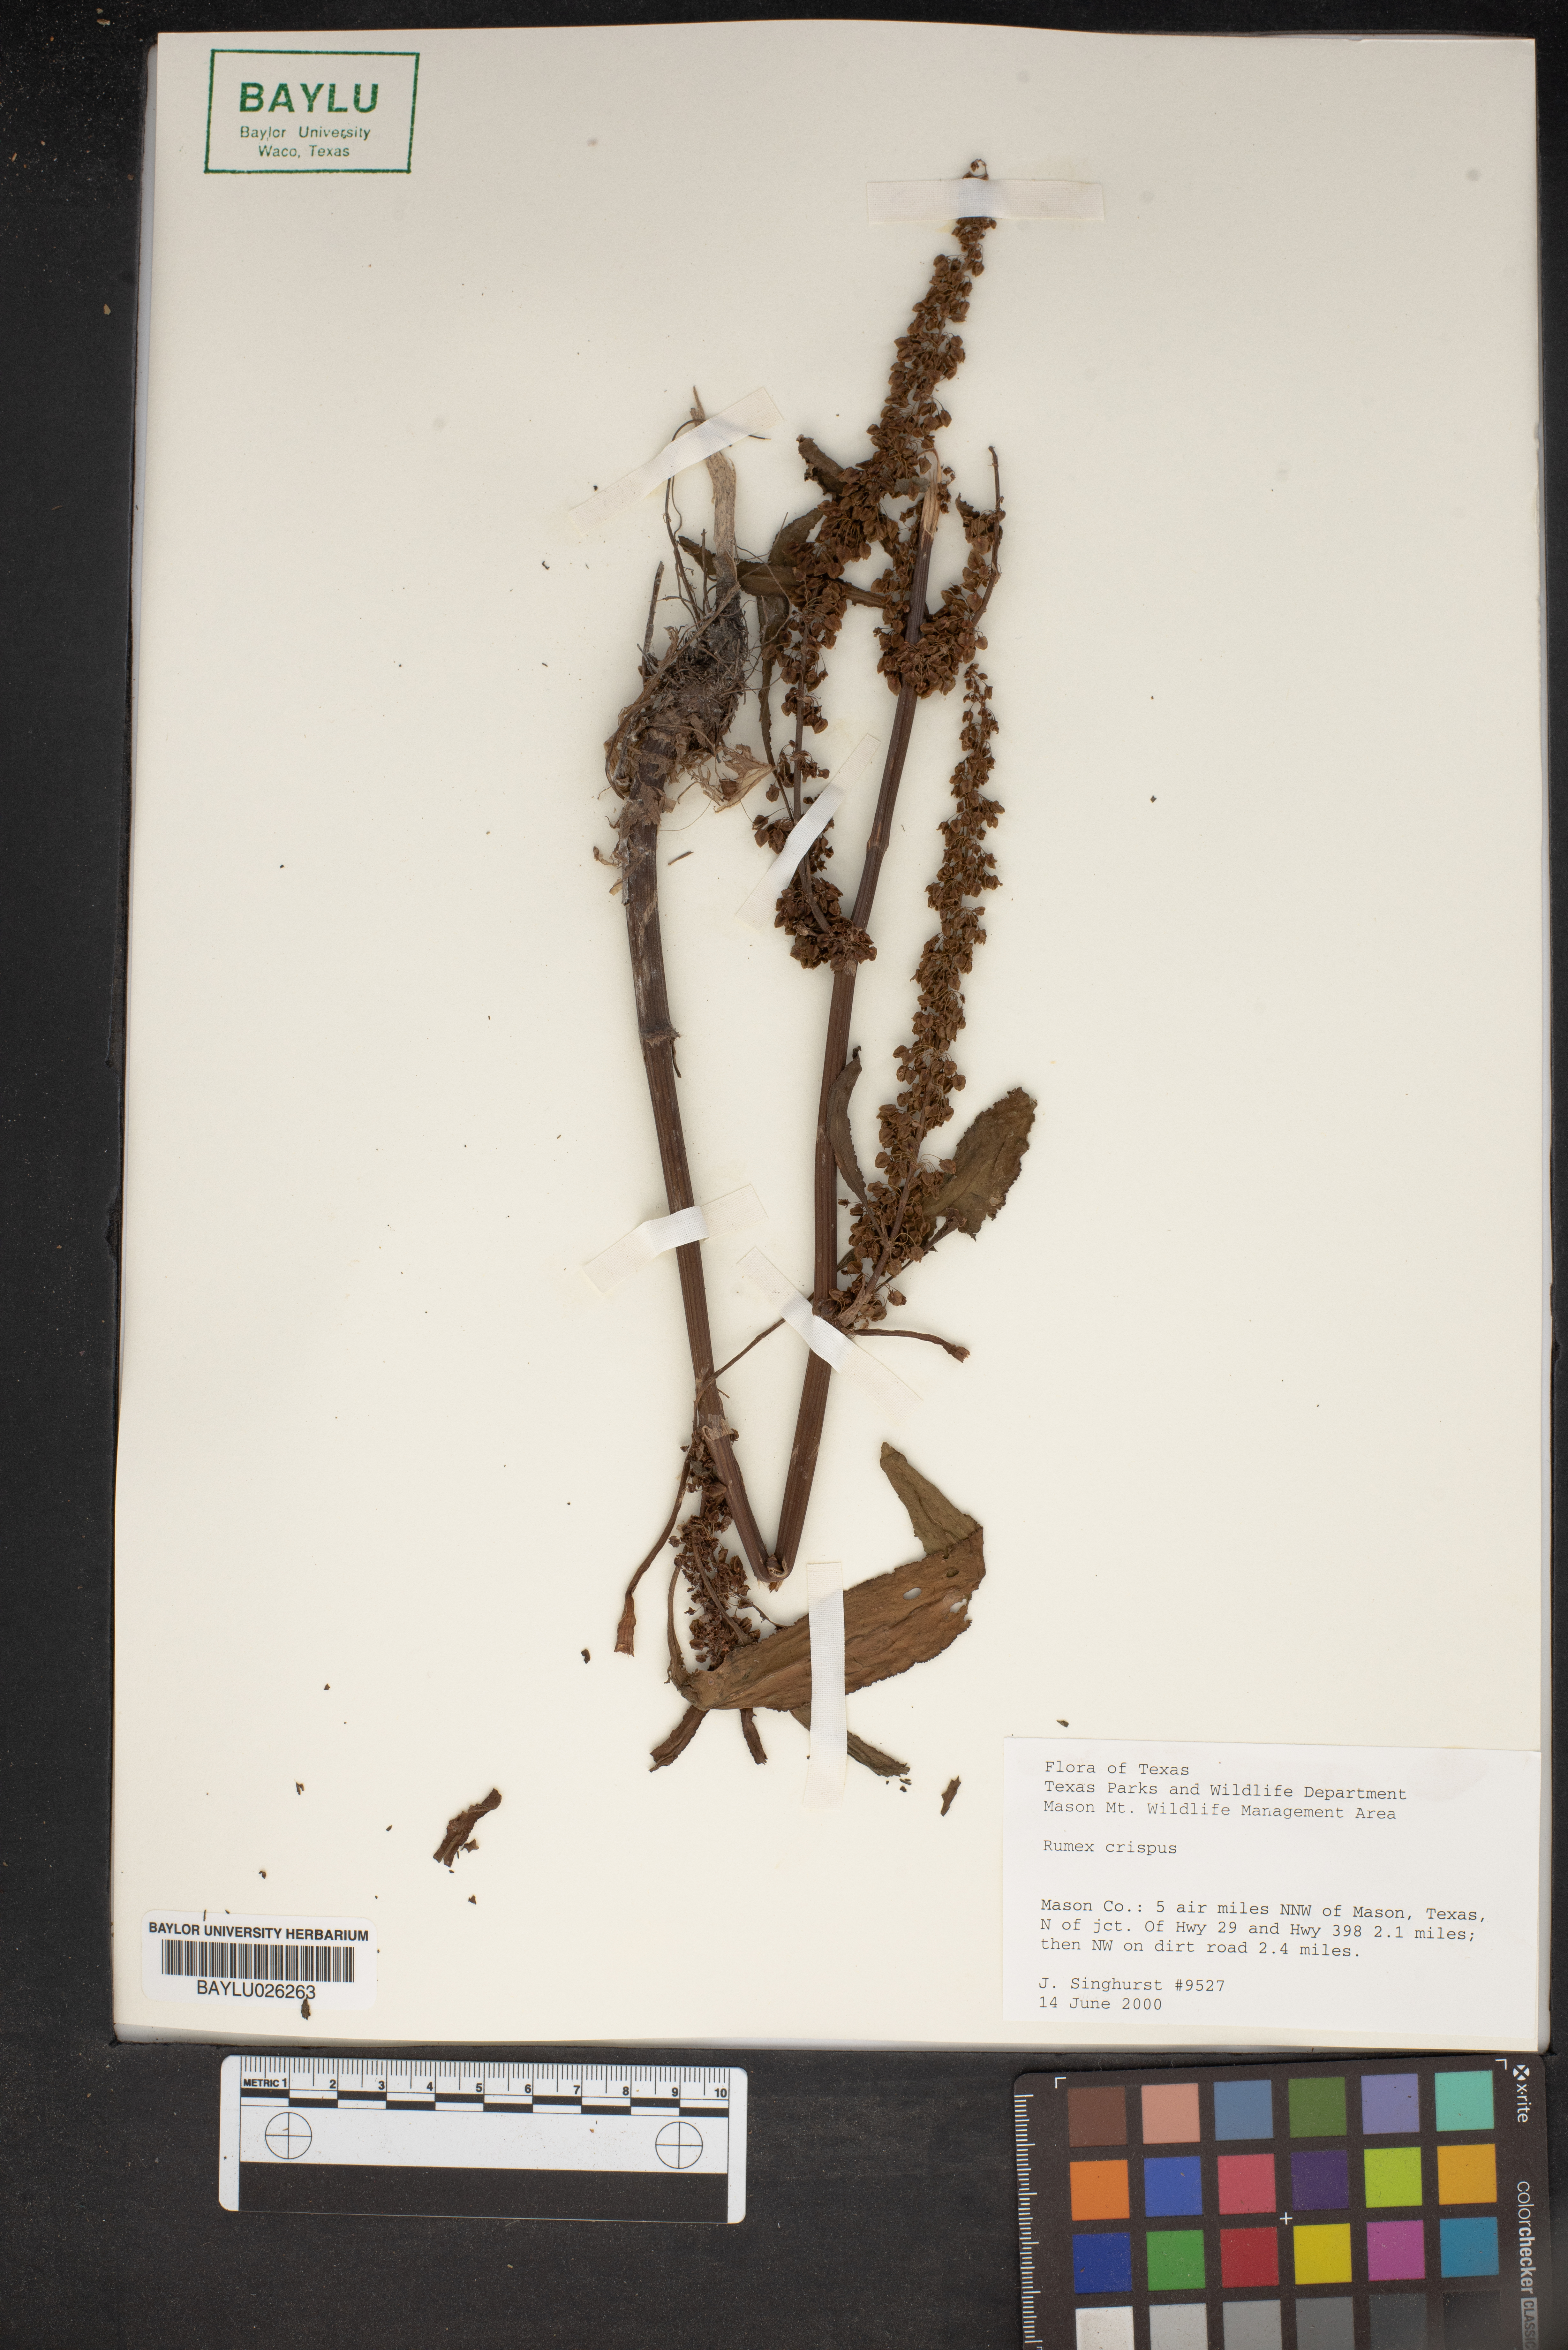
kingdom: Plantae
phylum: Tracheophyta
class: Magnoliopsida
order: Caryophyllales
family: Polygonaceae
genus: Rumex
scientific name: Rumex crispus
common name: Curled dock
